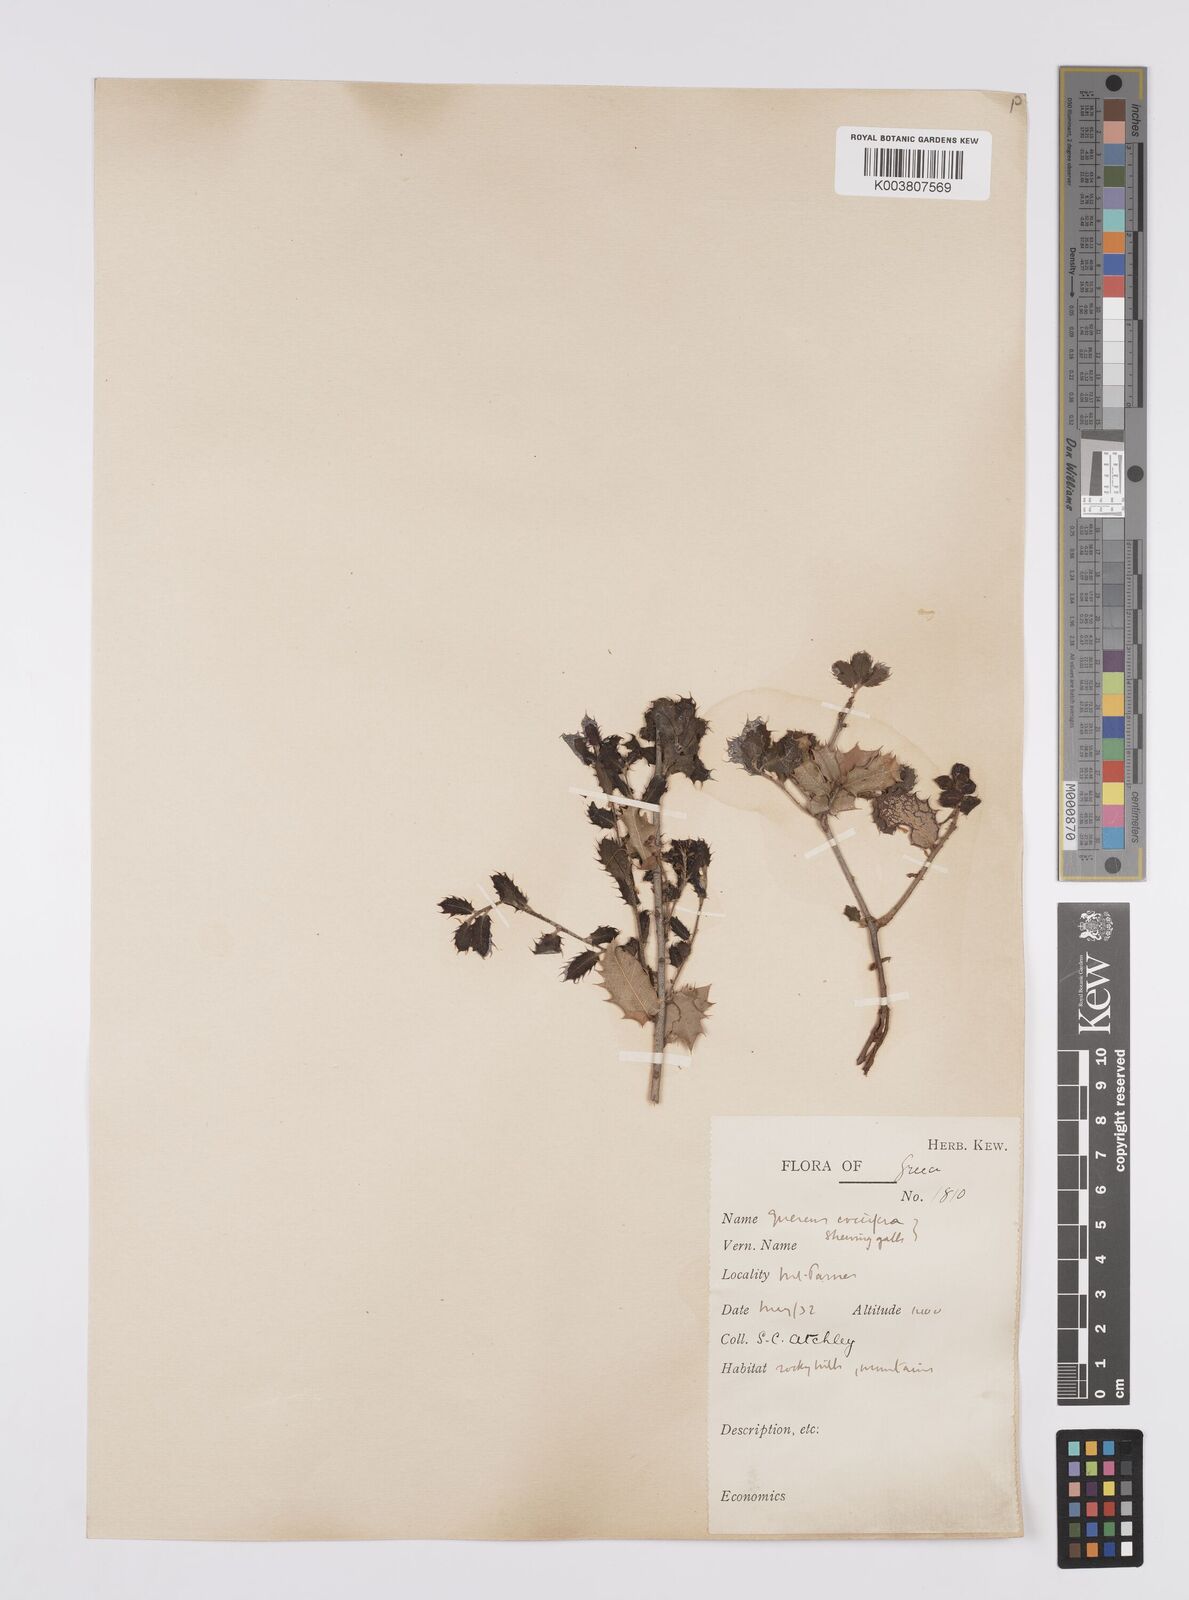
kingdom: Plantae
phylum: Tracheophyta
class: Magnoliopsida
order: Fagales
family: Fagaceae
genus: Quercus
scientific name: Quercus coccifera
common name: Kermes oak
